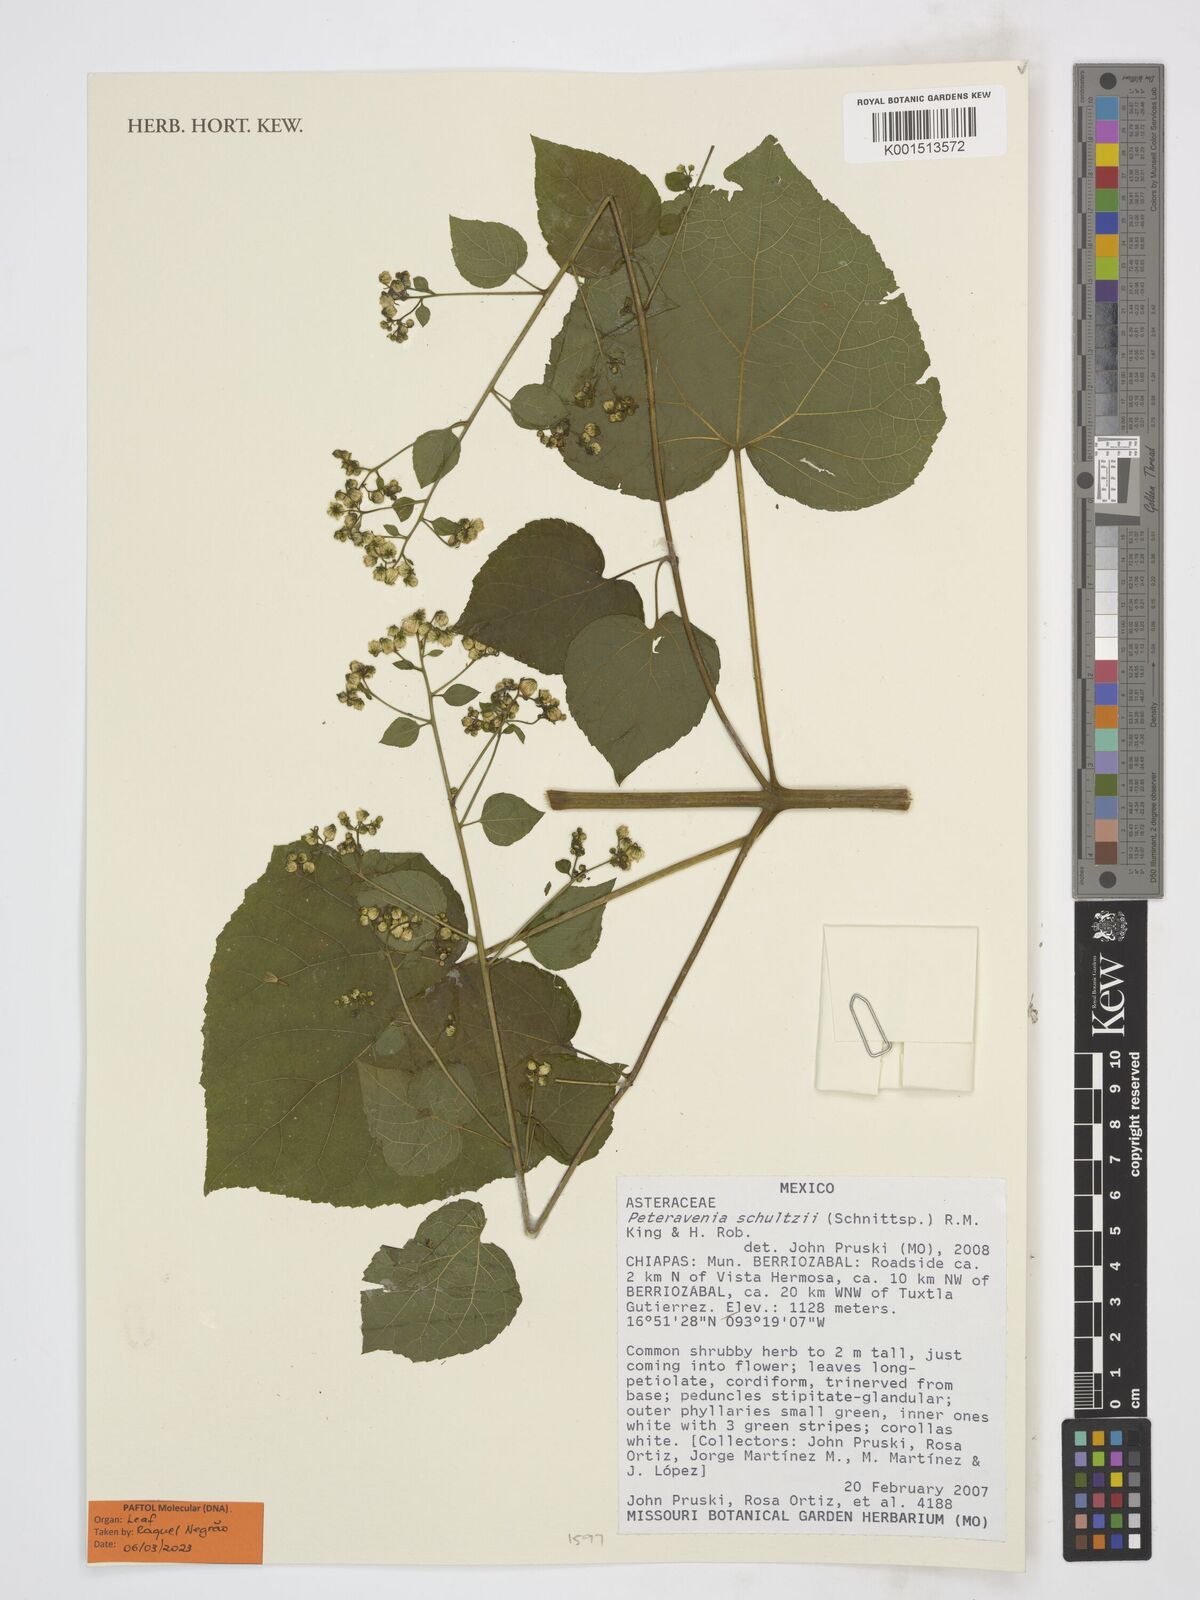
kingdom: Plantae
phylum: Tracheophyta
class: Magnoliopsida
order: Asterales
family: Asteraceae
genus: Peteravenia
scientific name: Peteravenia schultzii
